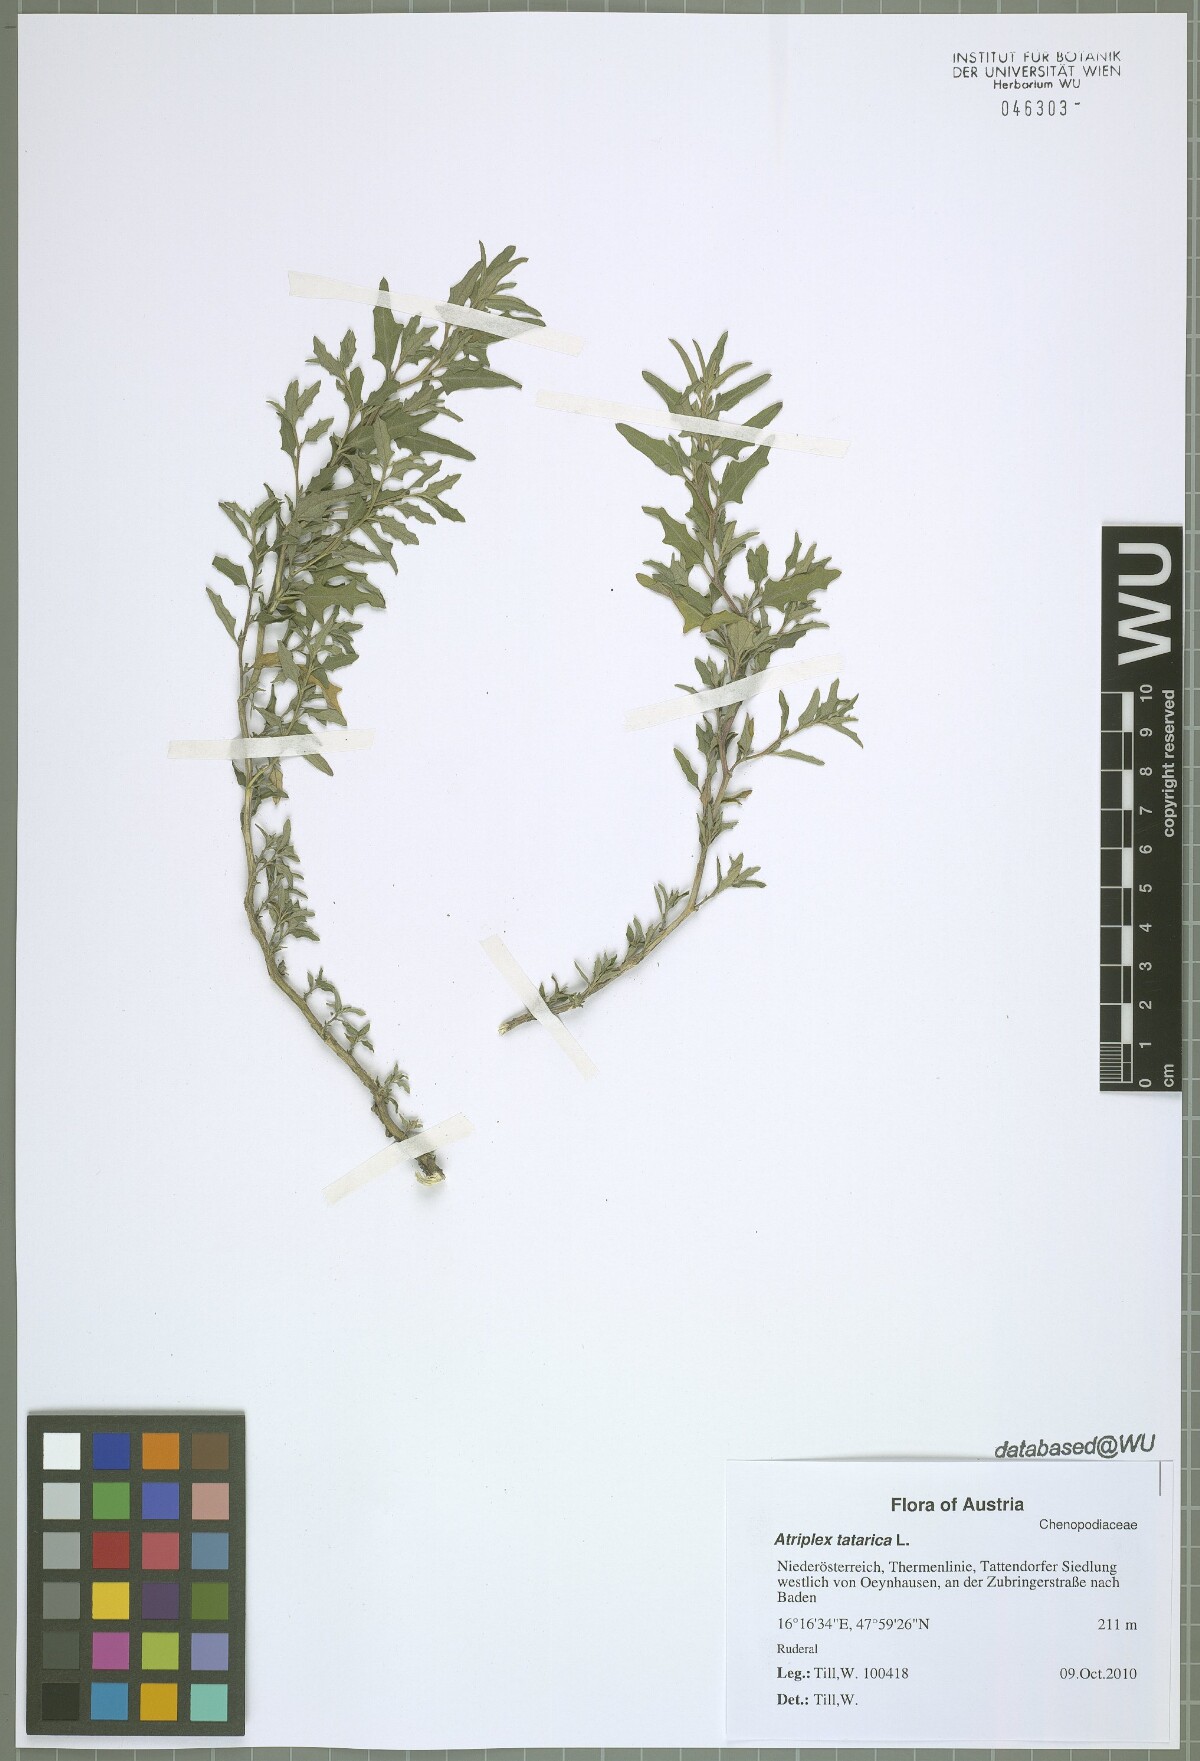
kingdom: Plantae
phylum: Tracheophyta
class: Magnoliopsida
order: Caryophyllales
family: Amaranthaceae
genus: Atriplex
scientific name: Atriplex tatarica
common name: Tatarian orache
